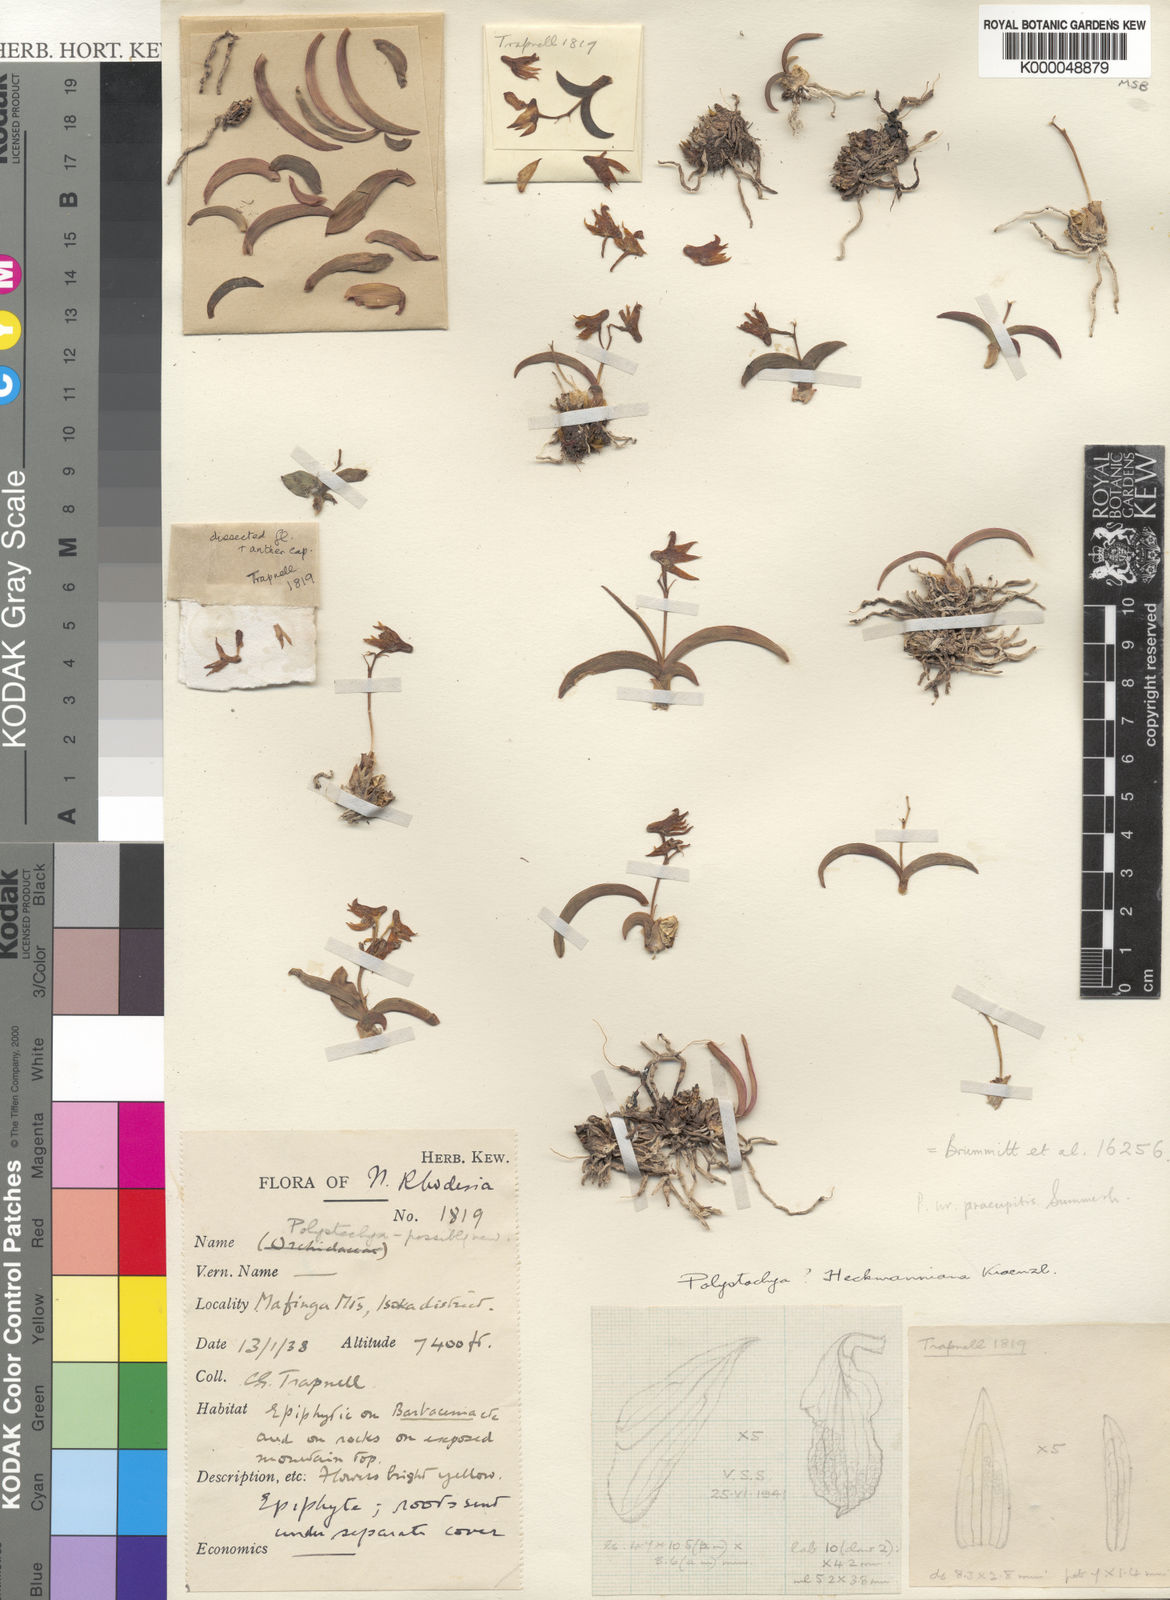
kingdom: Plantae
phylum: Tracheophyta
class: Liliopsida
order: Asparagales
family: Orchidaceae
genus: Polystachya
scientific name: Polystachya mafingensis
